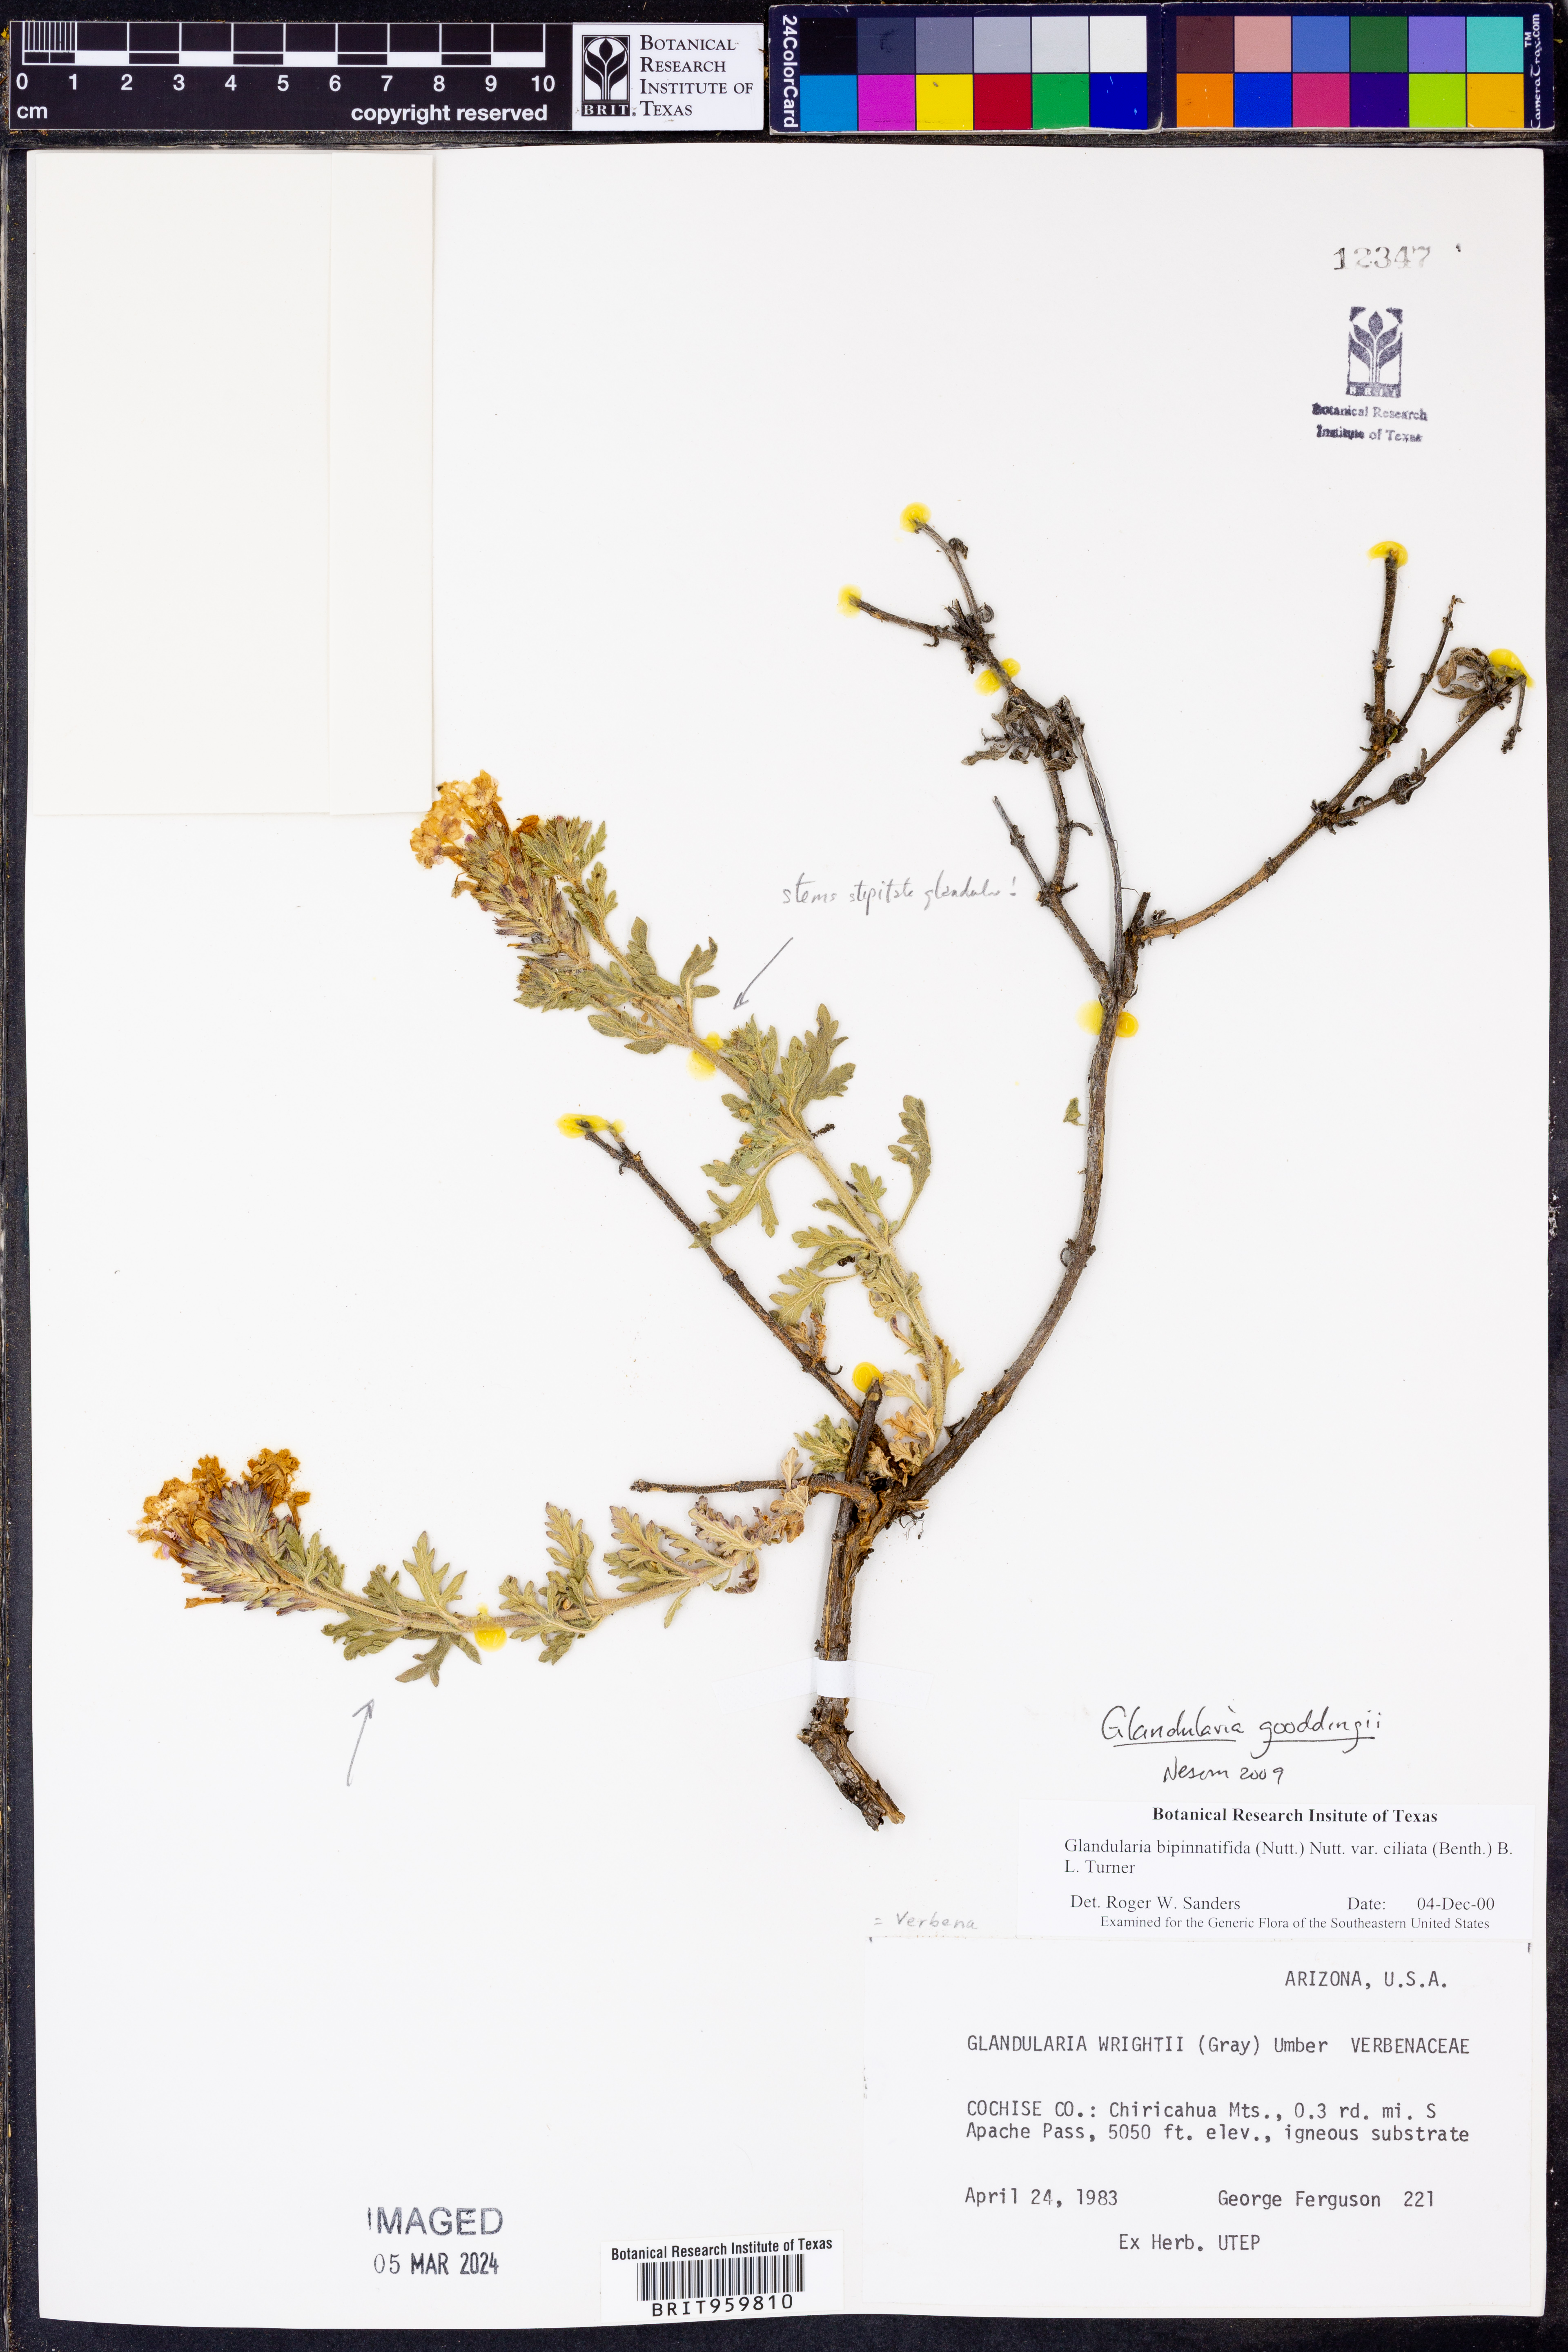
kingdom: Plantae
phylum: Tracheophyta
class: Magnoliopsida
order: Lamiales
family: Verbenaceae
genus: Verbena
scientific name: Verbena gooddingii
